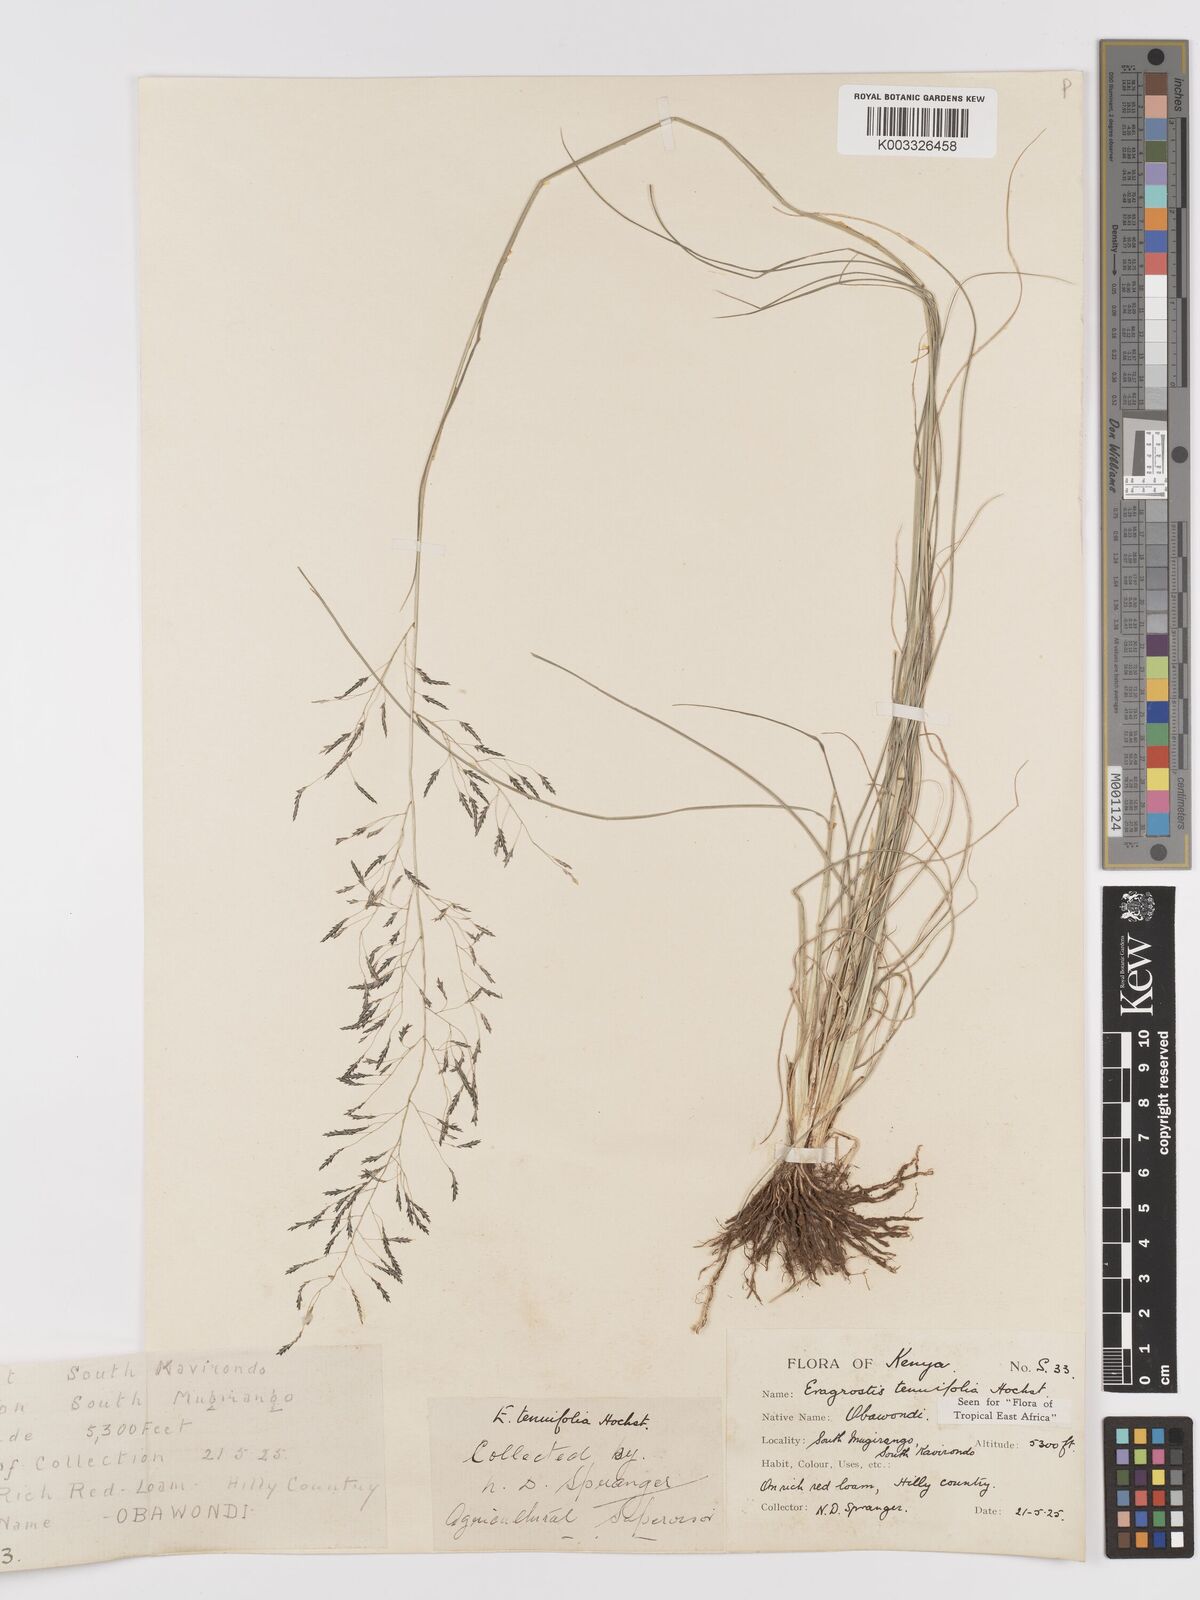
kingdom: Plantae
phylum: Tracheophyta
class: Liliopsida
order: Poales
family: Poaceae
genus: Eragrostis
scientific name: Eragrostis tenuifolia
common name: Elastic grass
